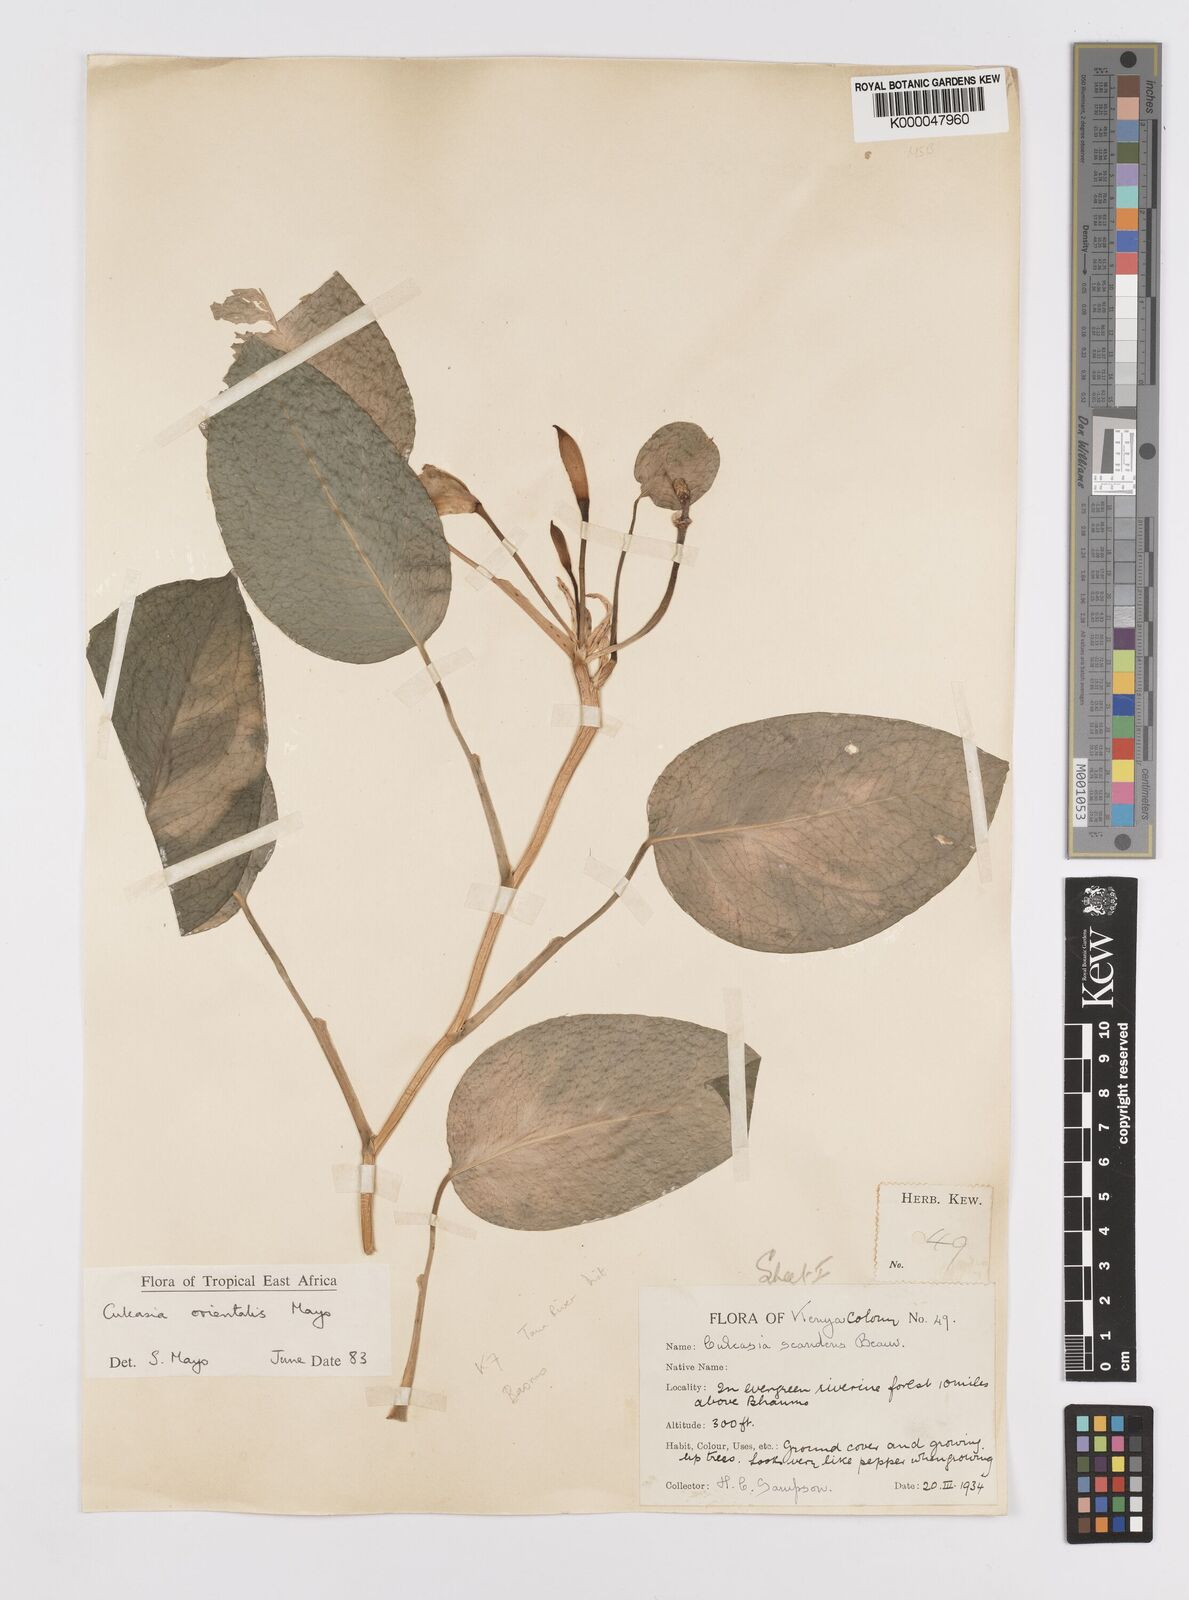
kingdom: Plantae
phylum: Tracheophyta
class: Liliopsida
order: Alismatales
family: Araceae
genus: Culcasia
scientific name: Culcasia orientalis
